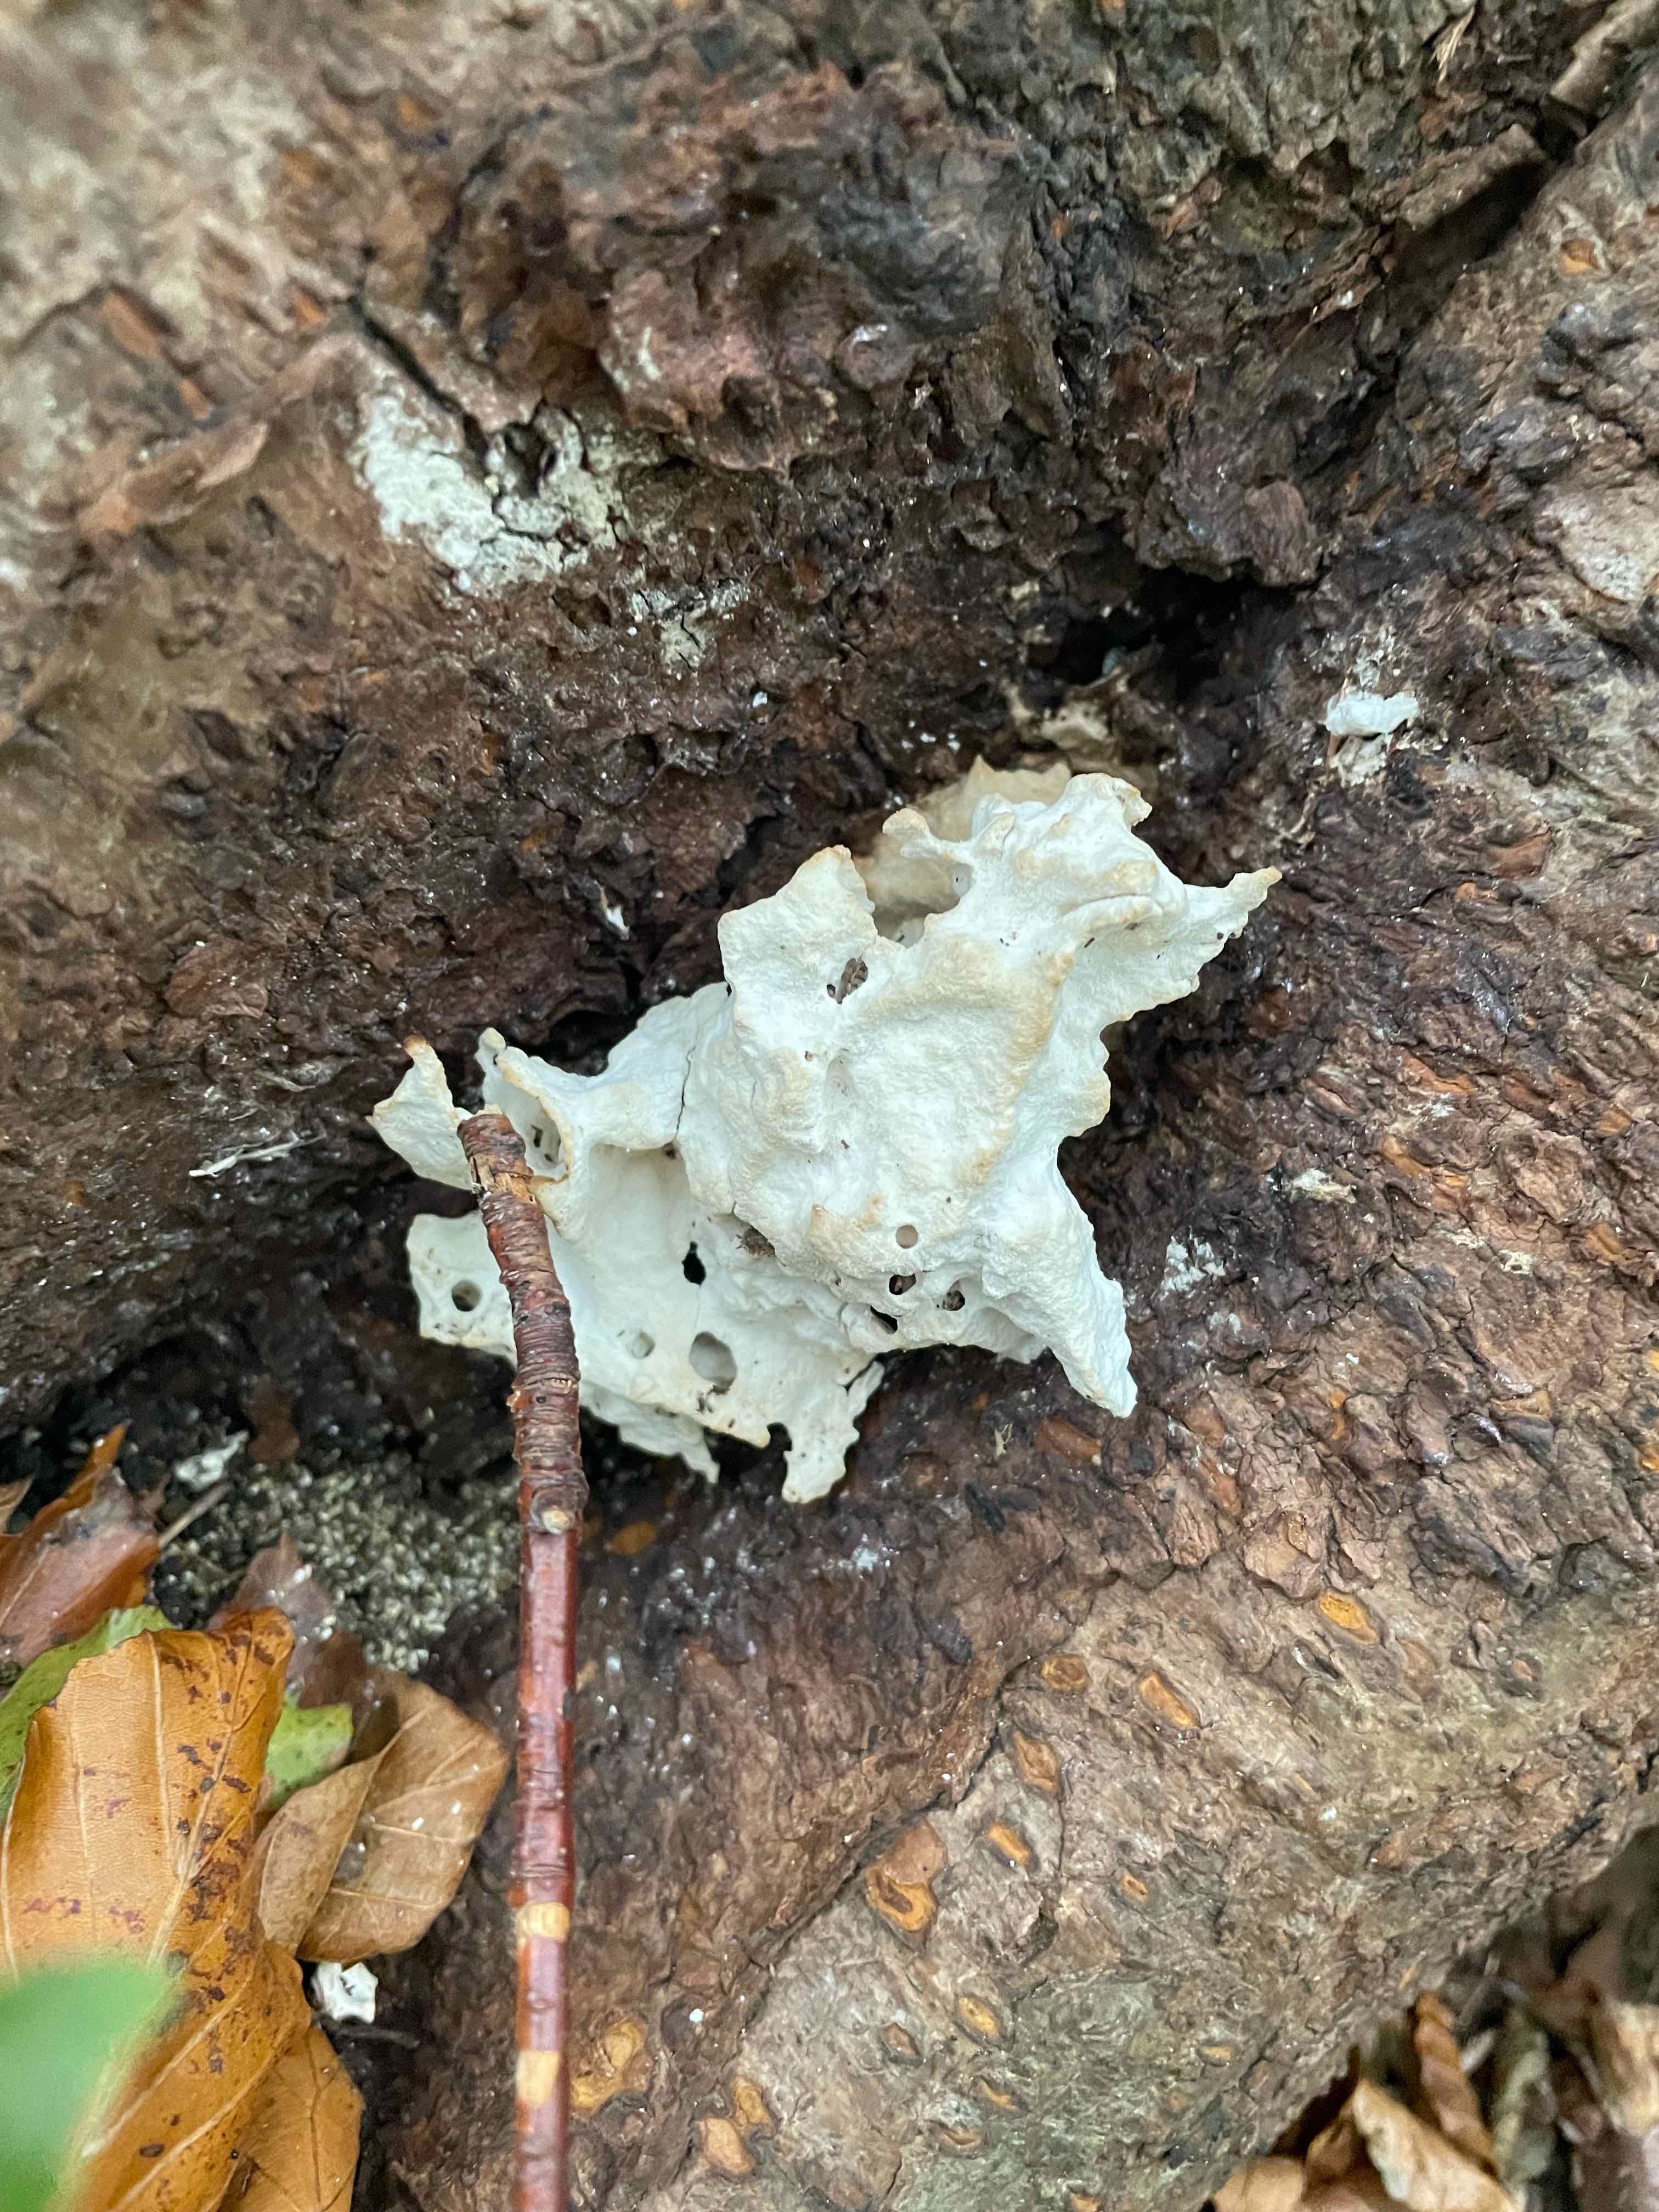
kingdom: Fungi
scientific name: Fungi
